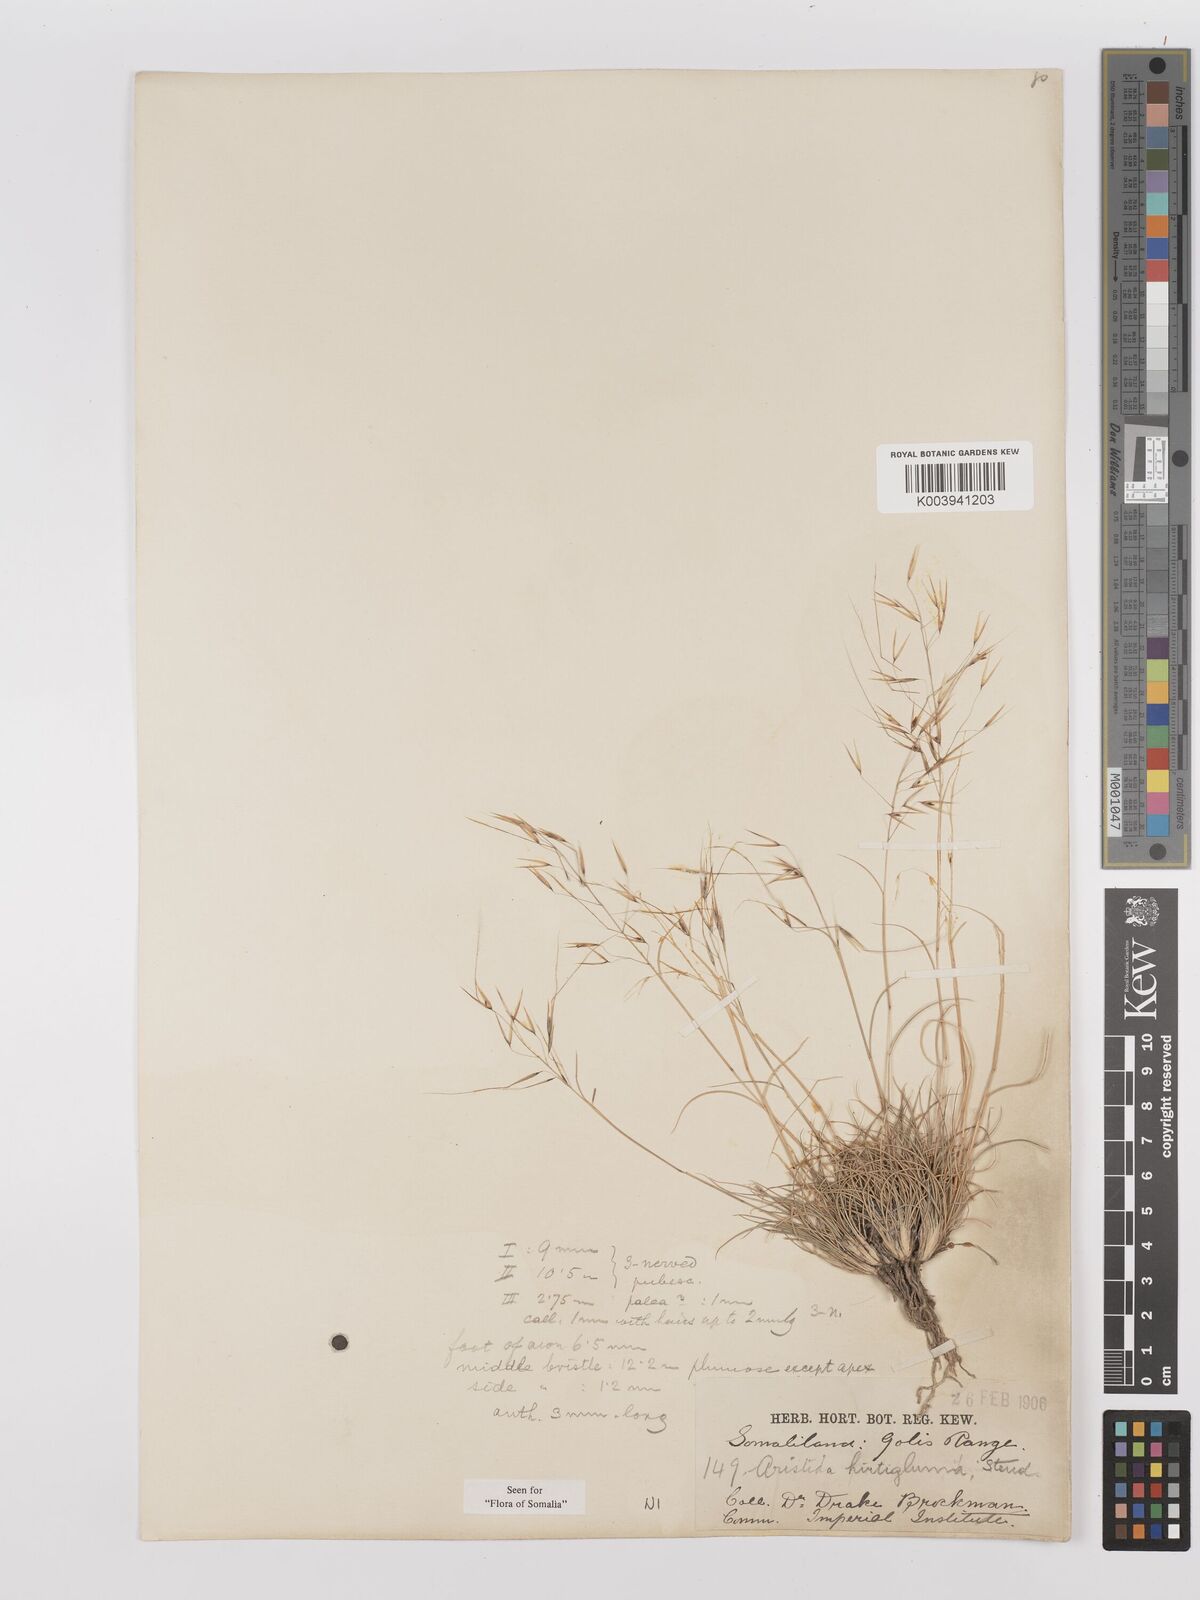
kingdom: Plantae
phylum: Tracheophyta
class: Liliopsida
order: Poales
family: Poaceae
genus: Stipagrostis
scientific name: Stipagrostis hirtigluma
